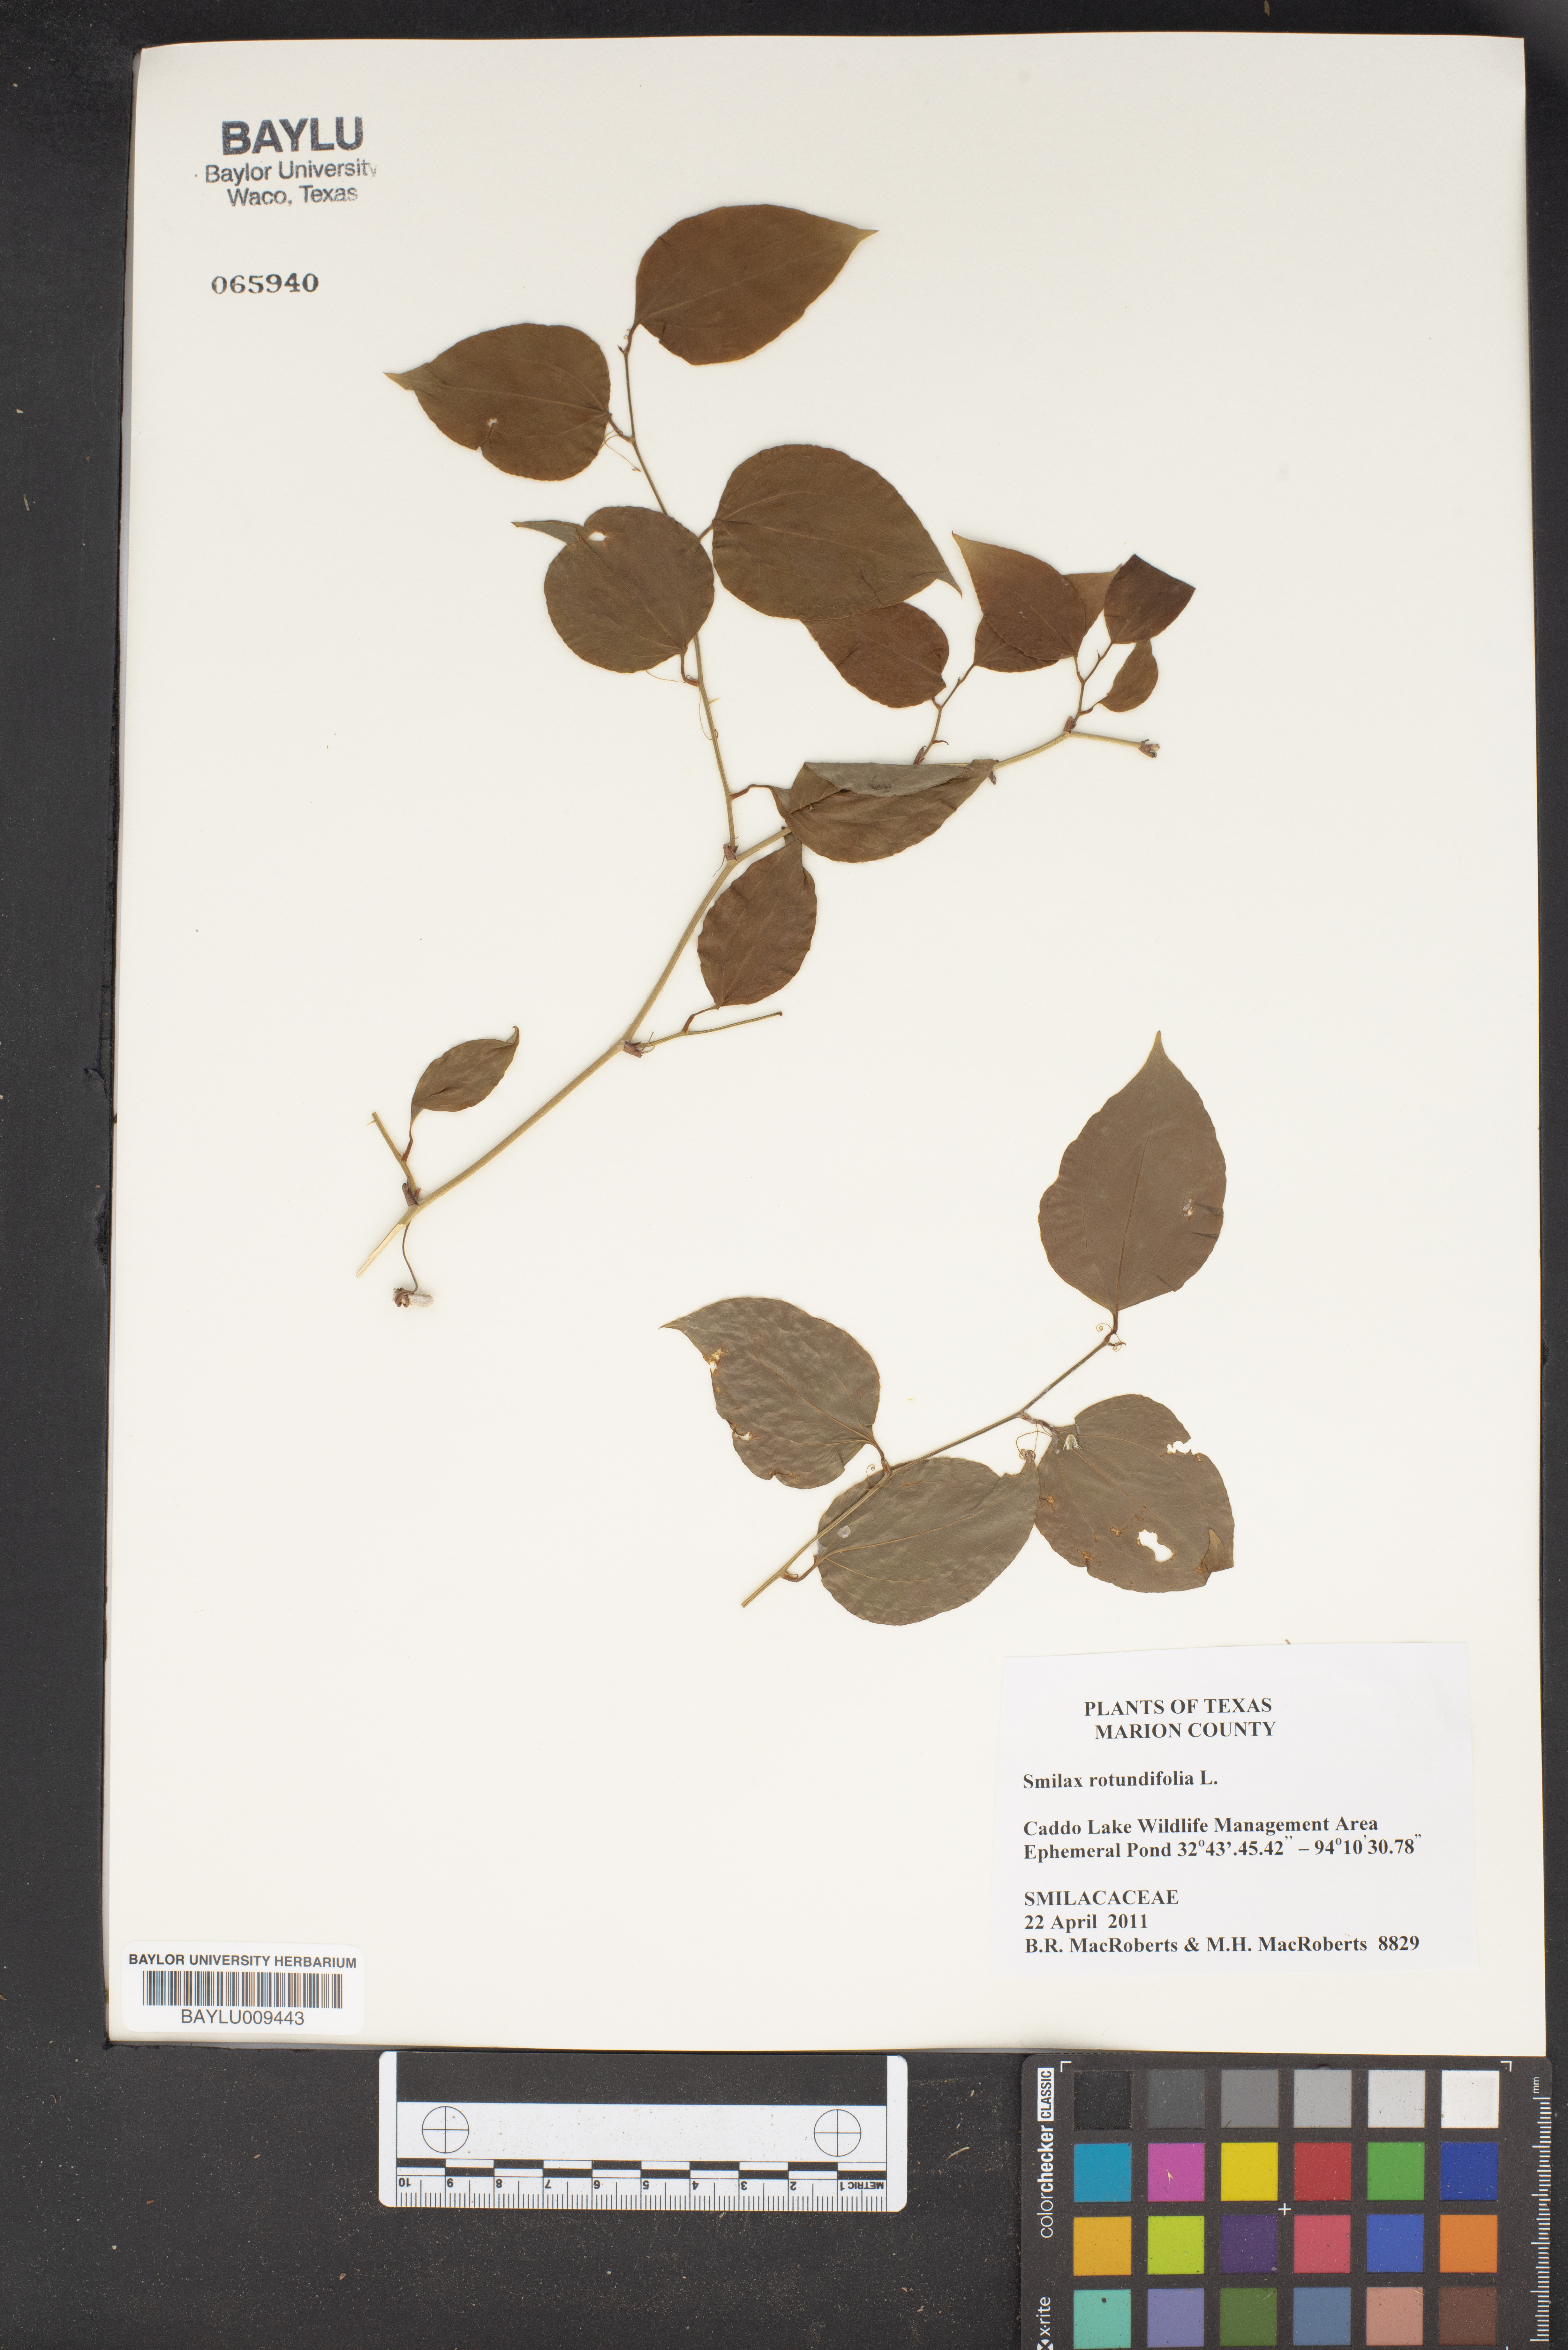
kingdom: Plantae
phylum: Tracheophyta
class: Liliopsida
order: Liliales
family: Smilacaceae
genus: Smilax
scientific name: Smilax rotundifolia
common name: Bullbriar
